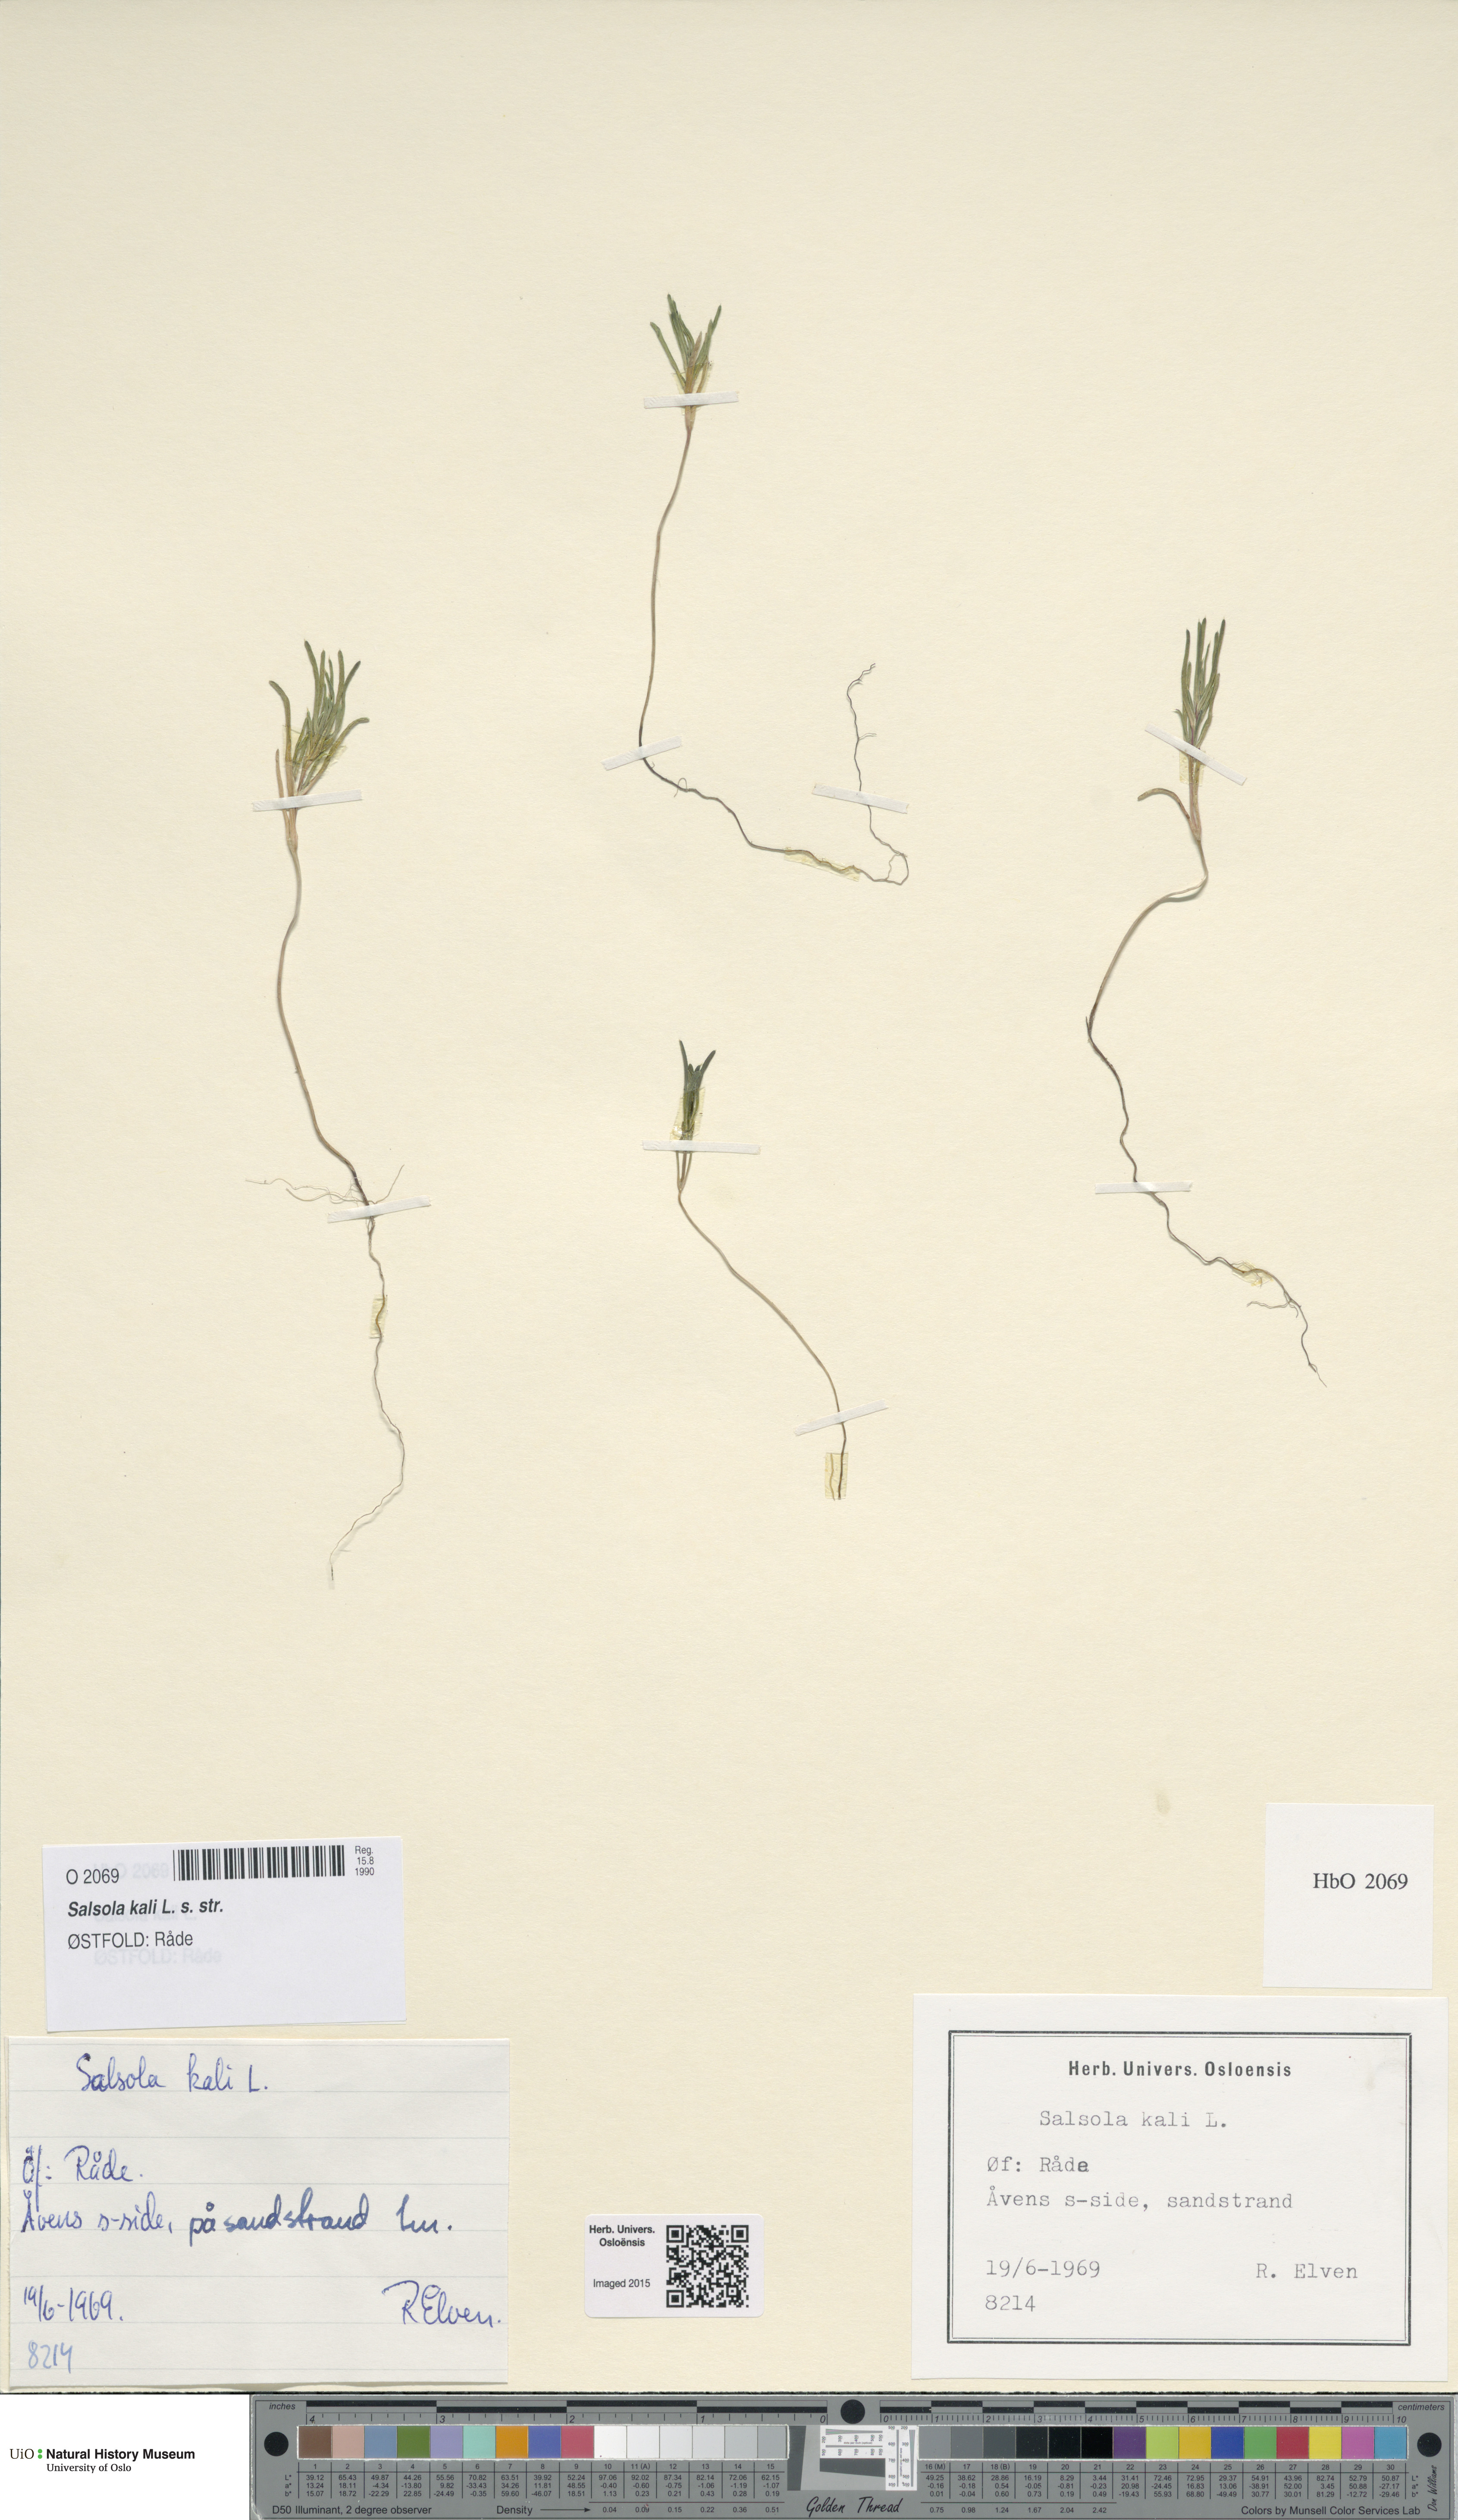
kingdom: Plantae
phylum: Tracheophyta
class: Magnoliopsida
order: Caryophyllales
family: Amaranthaceae
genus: Salsola
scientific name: Salsola kali
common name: Saltwort
